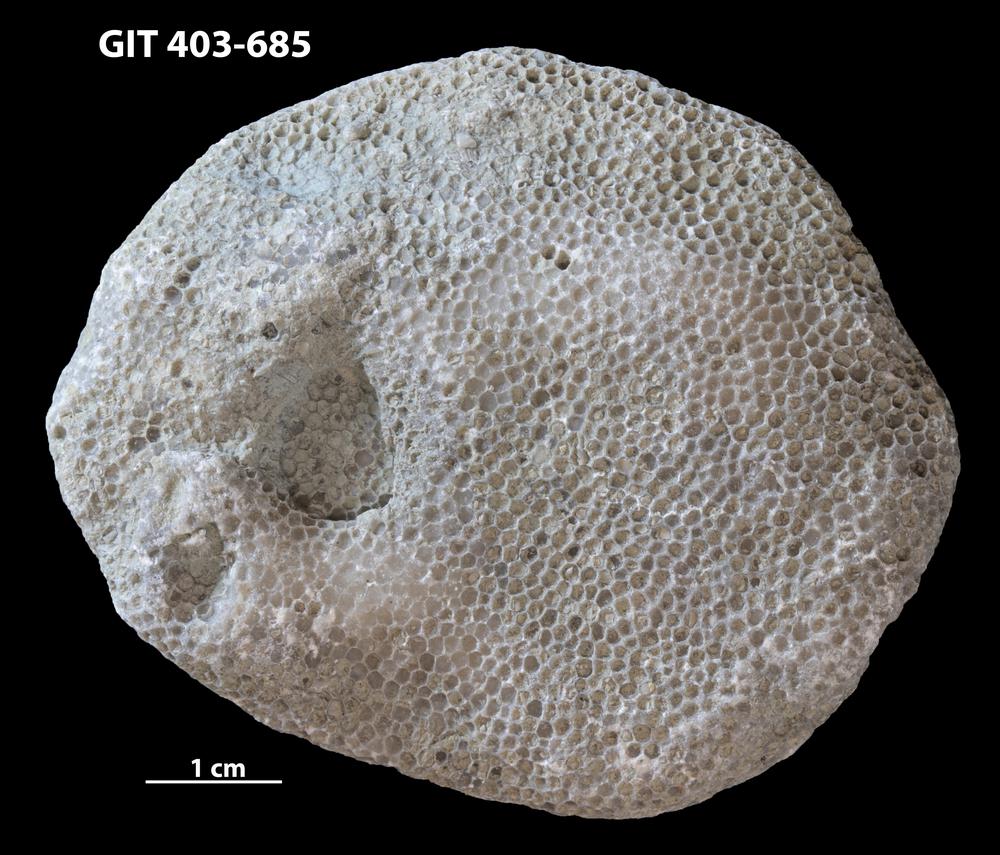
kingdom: Animalia
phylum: Cnidaria
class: Anthozoa
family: Favositidae
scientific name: Favositidae
